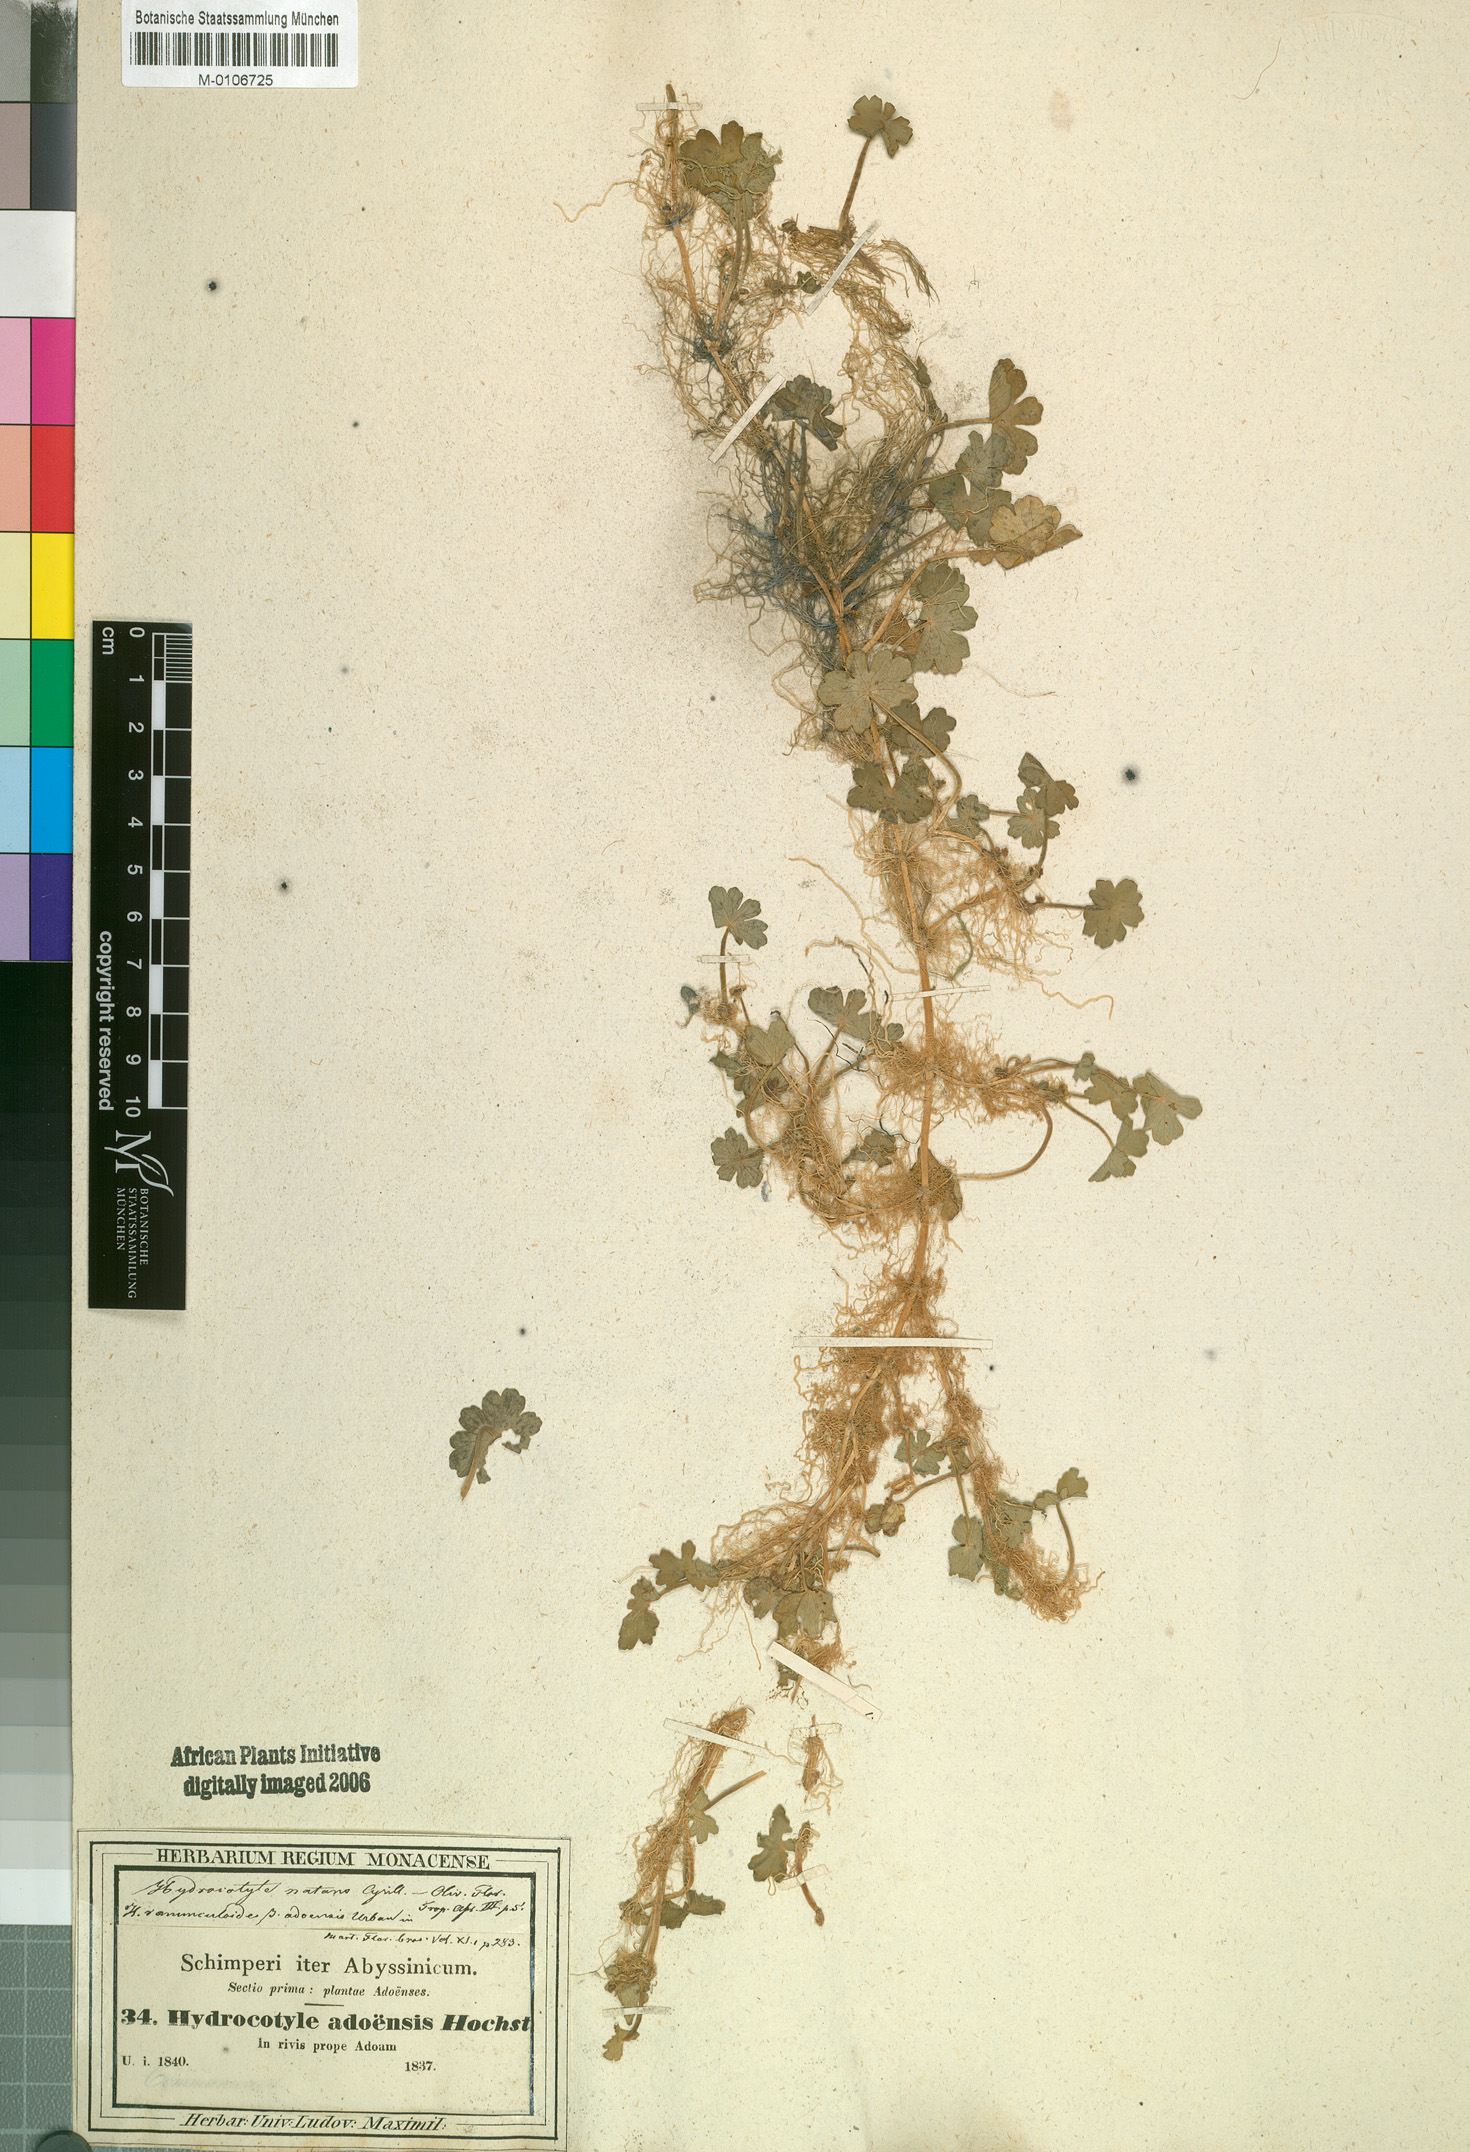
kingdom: Plantae
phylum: Tracheophyta
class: Magnoliopsida
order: Apiales
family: Araliaceae
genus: Hydrocotyle
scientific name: Hydrocotyle ranunculoides
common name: Floating pennywort
